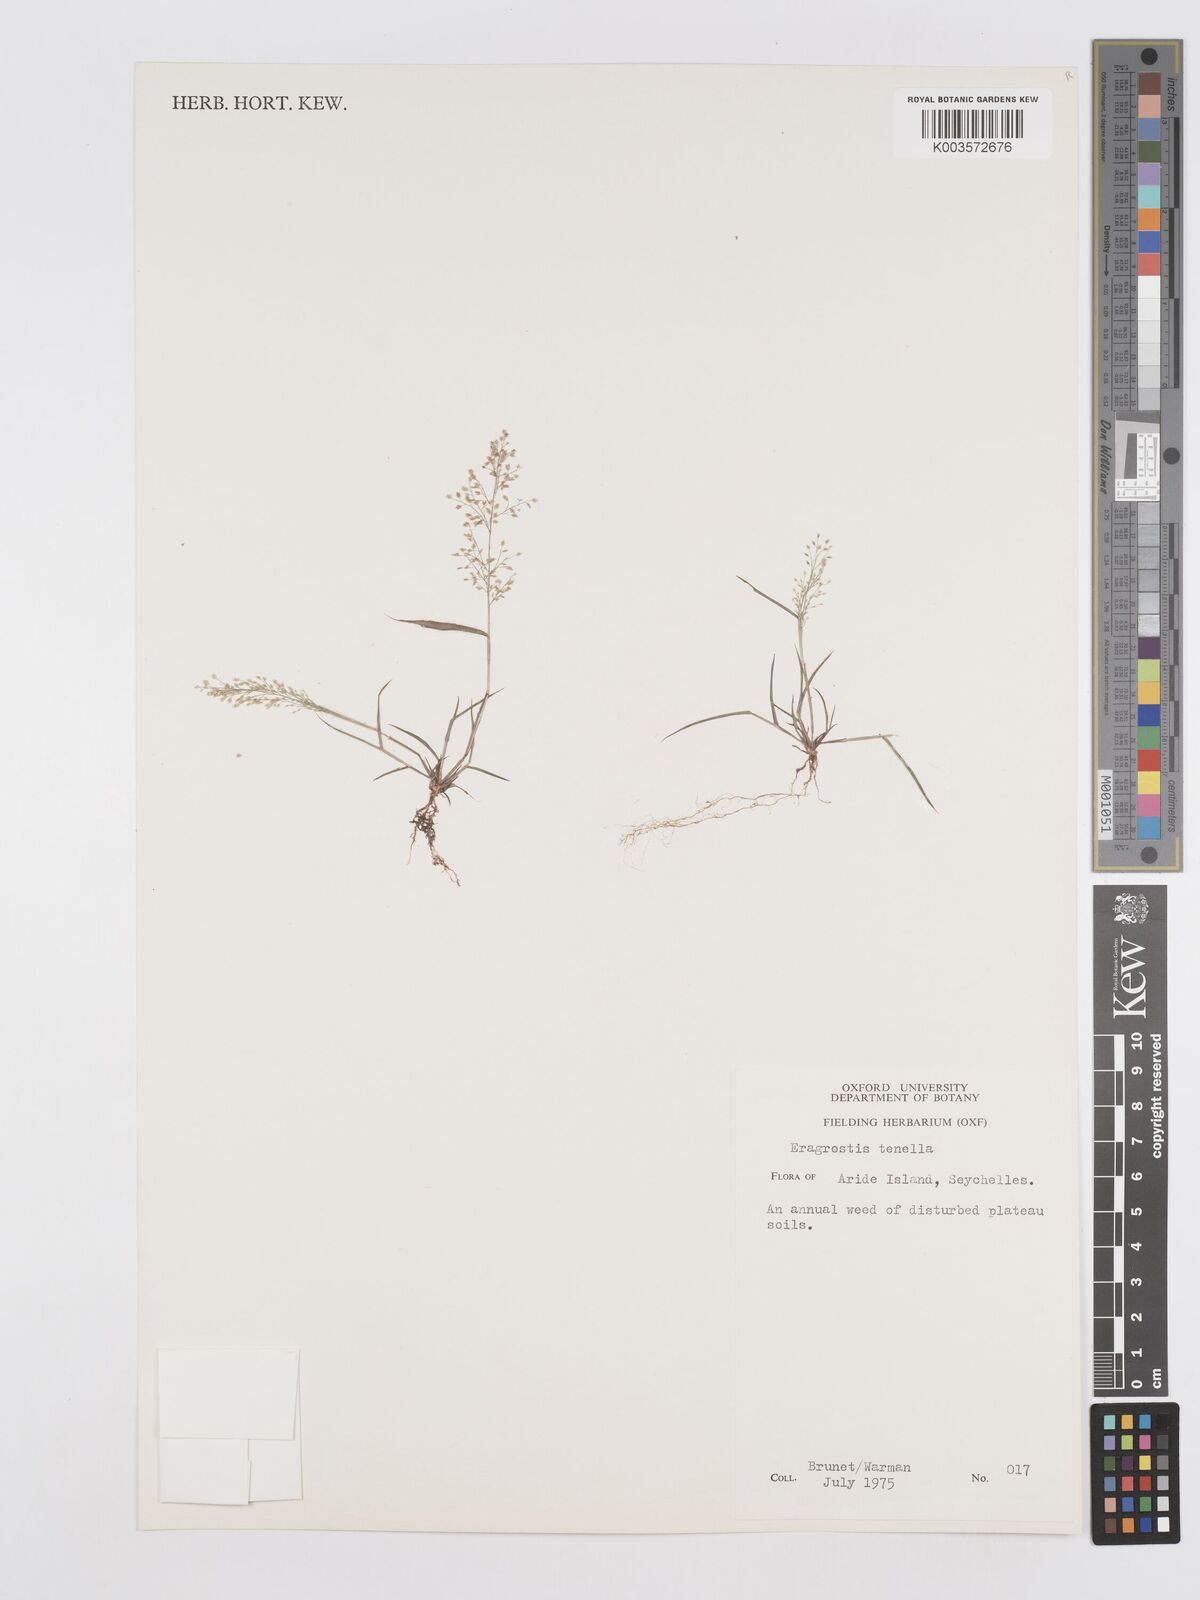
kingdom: Plantae
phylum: Tracheophyta
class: Liliopsida
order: Poales
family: Poaceae
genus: Eragrostis
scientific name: Eragrostis tenella
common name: Japanese lovegrass
